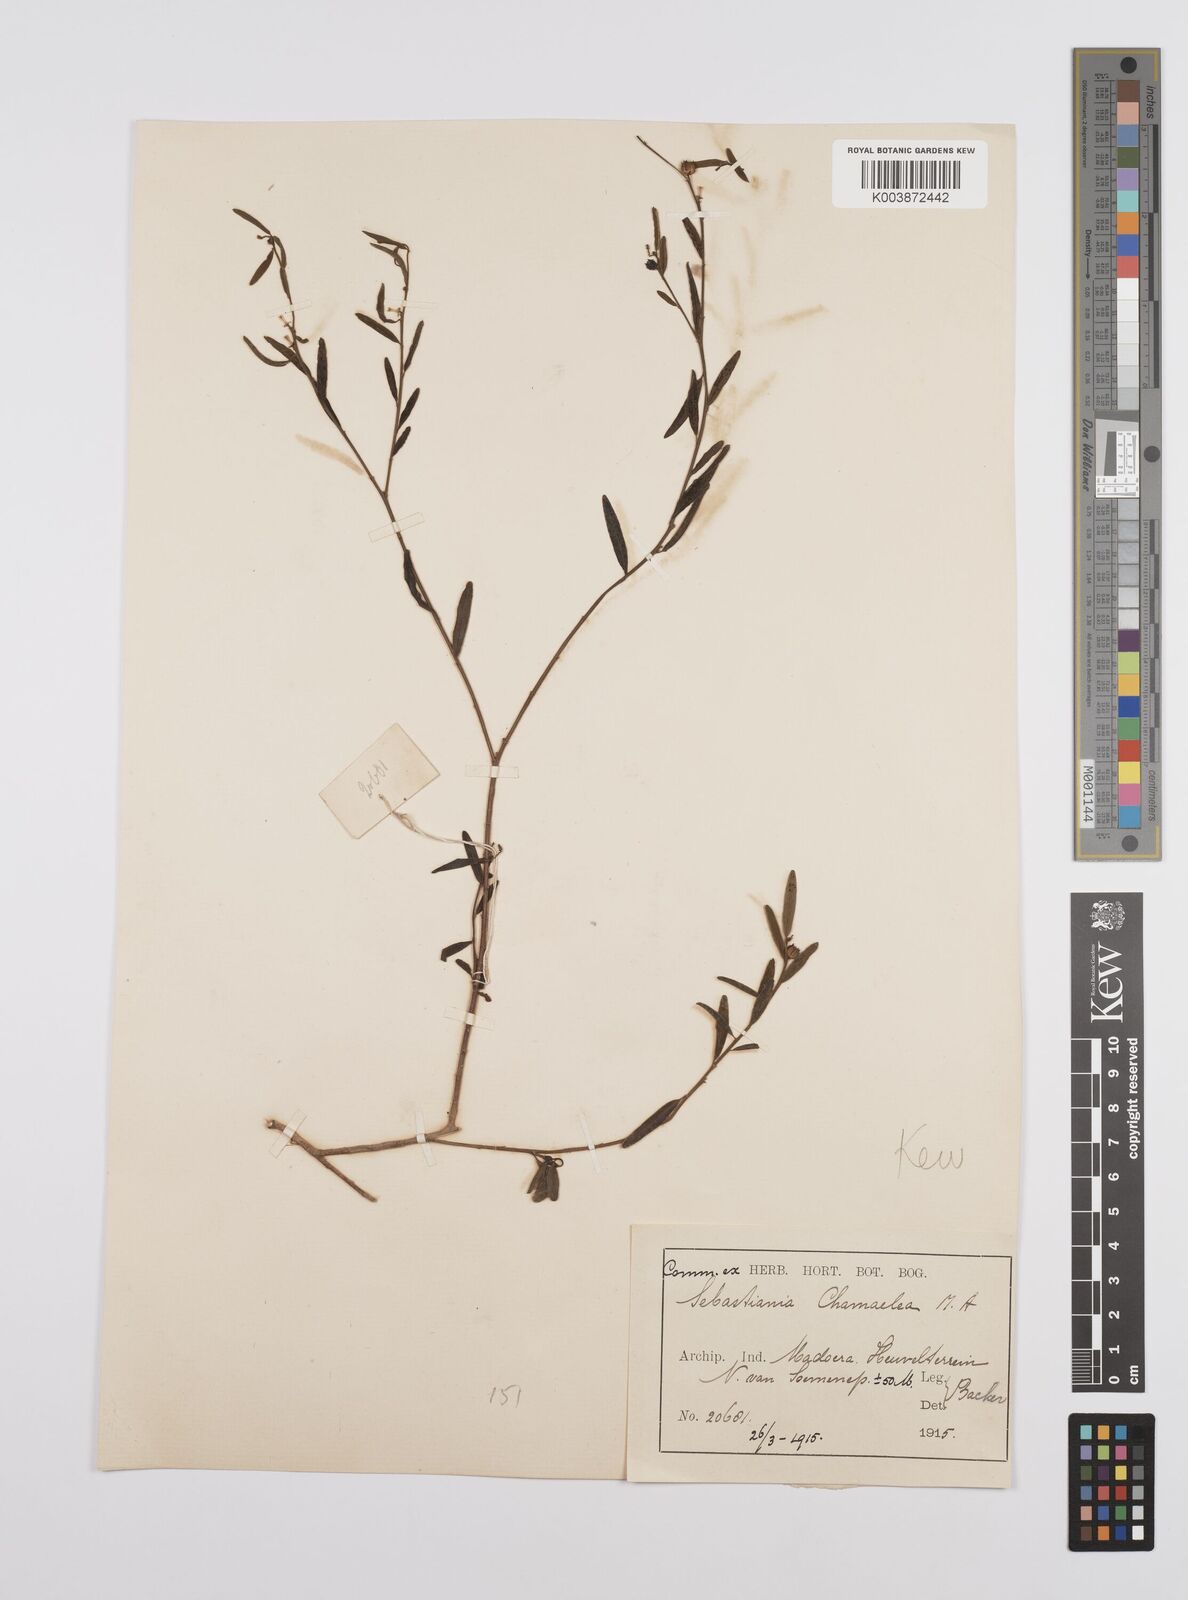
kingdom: Plantae
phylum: Tracheophyta
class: Magnoliopsida
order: Malpighiales
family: Euphorbiaceae
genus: Microstachys
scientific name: Microstachys chamaelea
